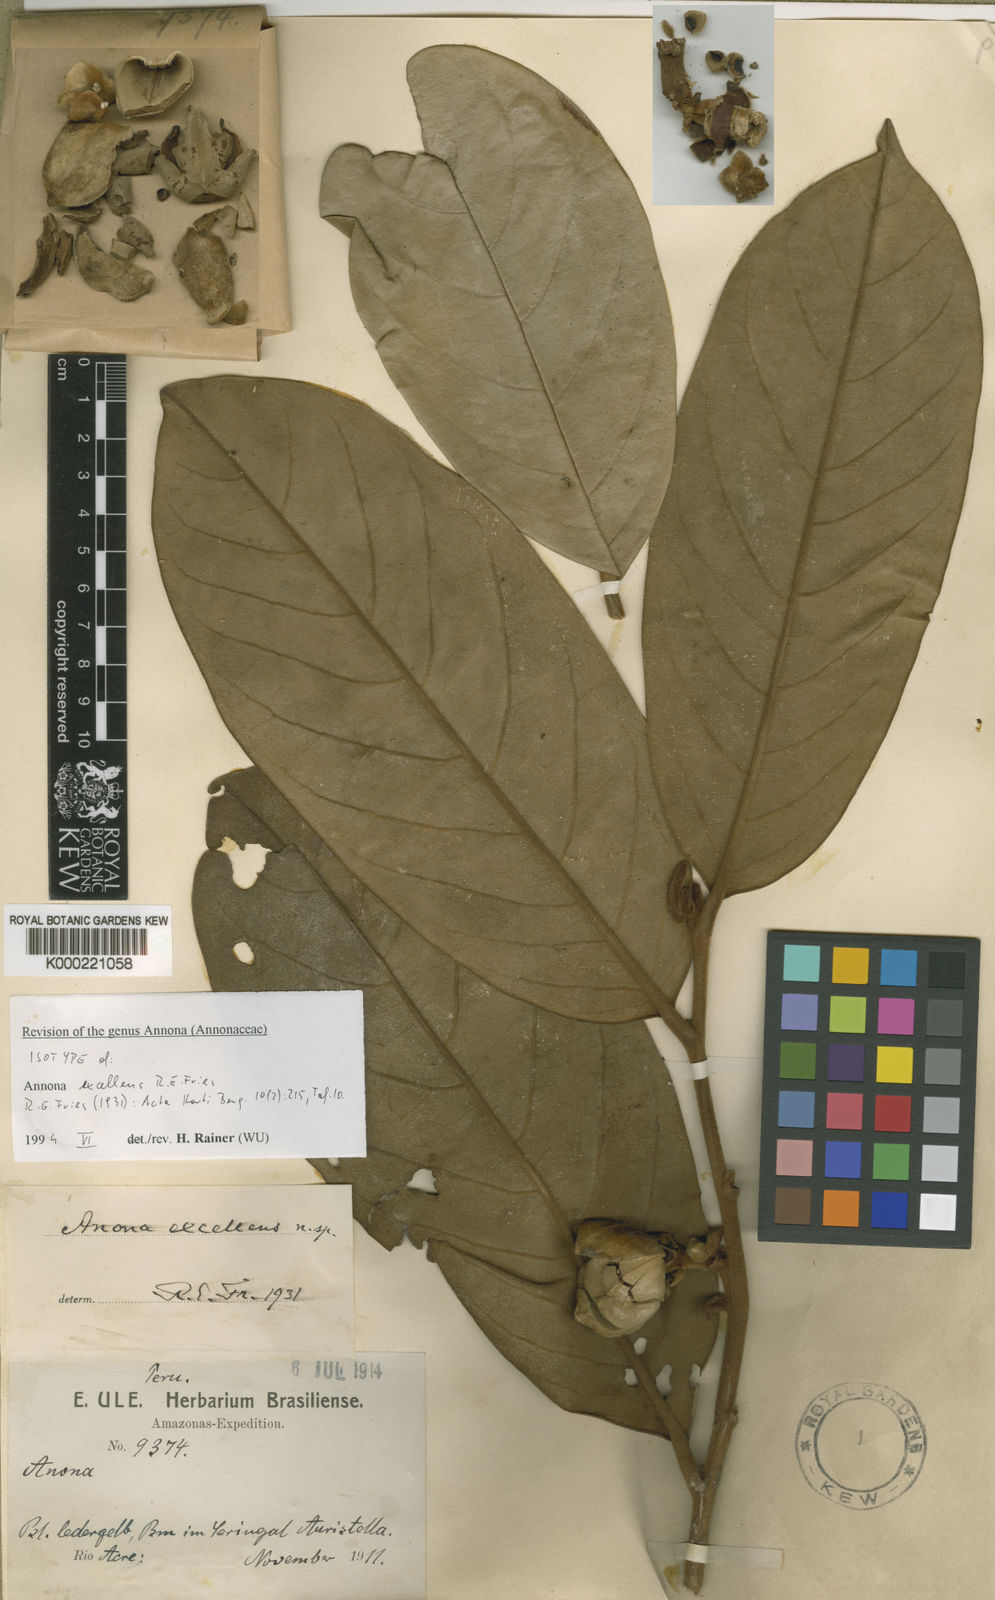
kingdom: Plantae
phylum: Tracheophyta
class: Magnoliopsida
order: Magnoliales
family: Annonaceae
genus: Annona
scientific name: Annona excellens
